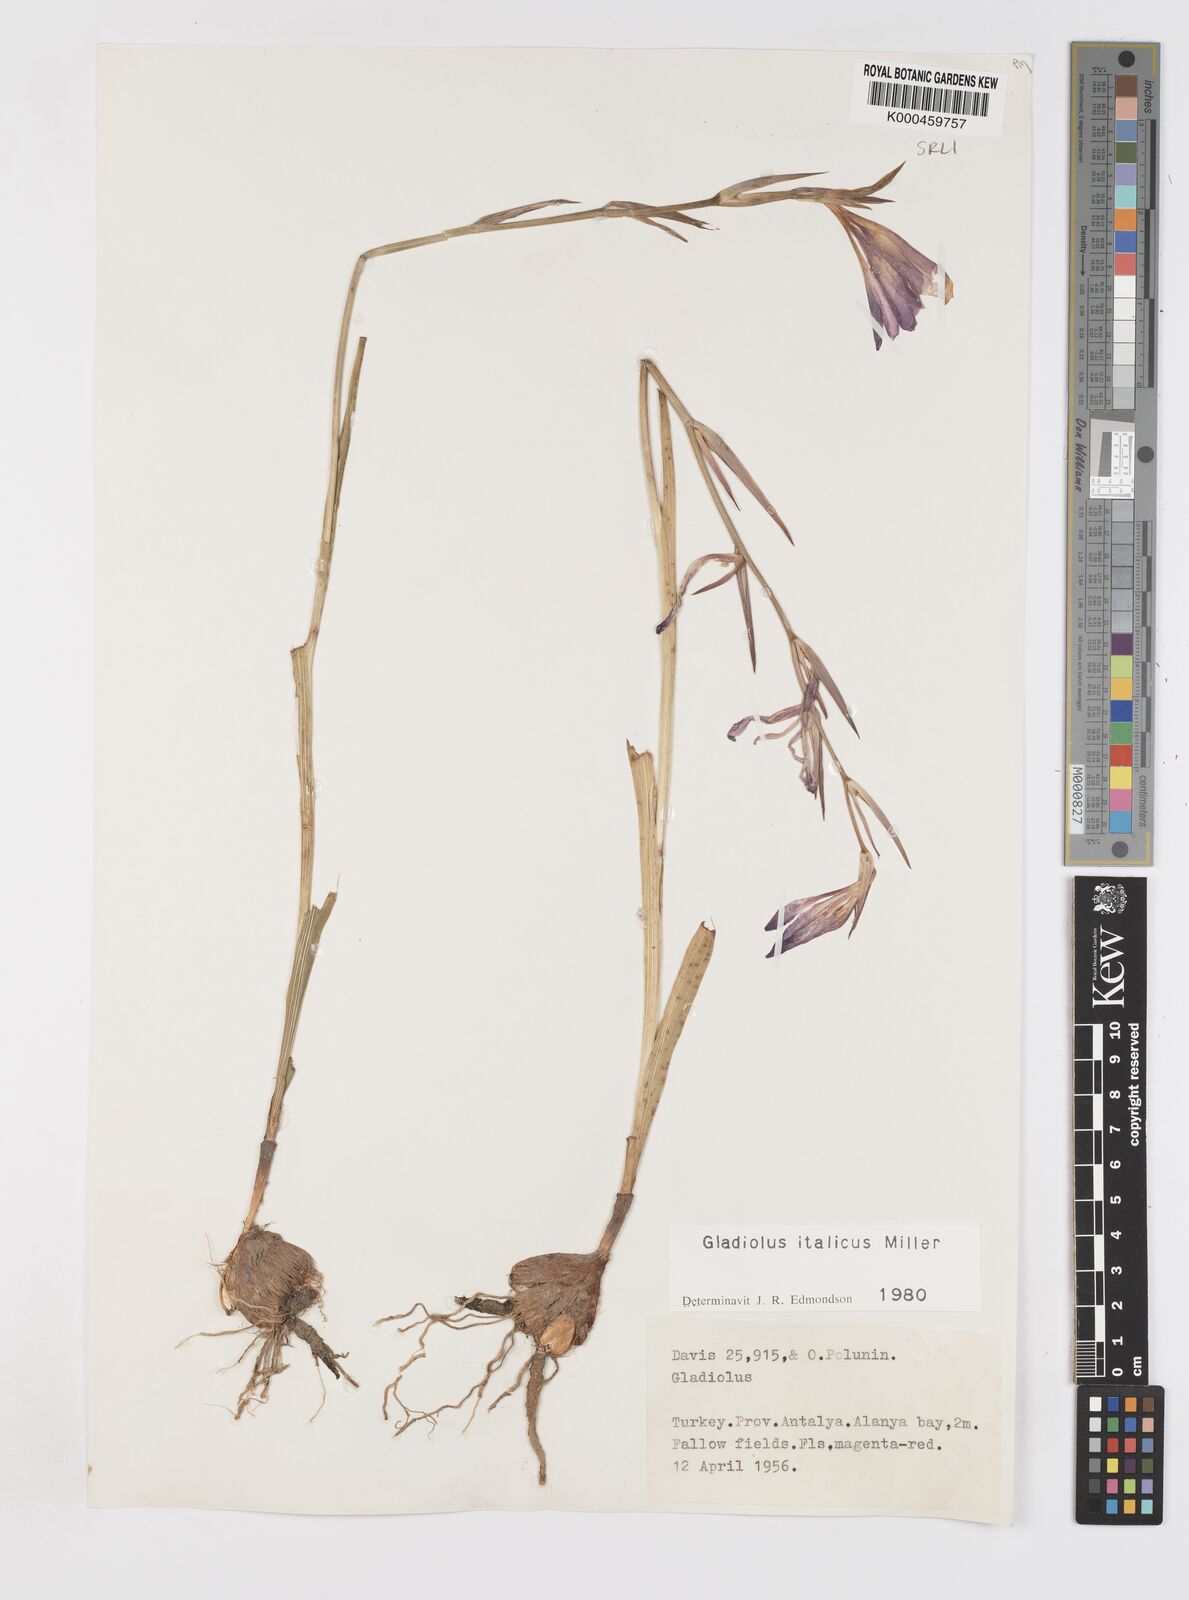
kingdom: Plantae
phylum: Tracheophyta
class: Liliopsida
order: Asparagales
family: Iridaceae
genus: Gladiolus
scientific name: Gladiolus italicus
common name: Field gladiolus
